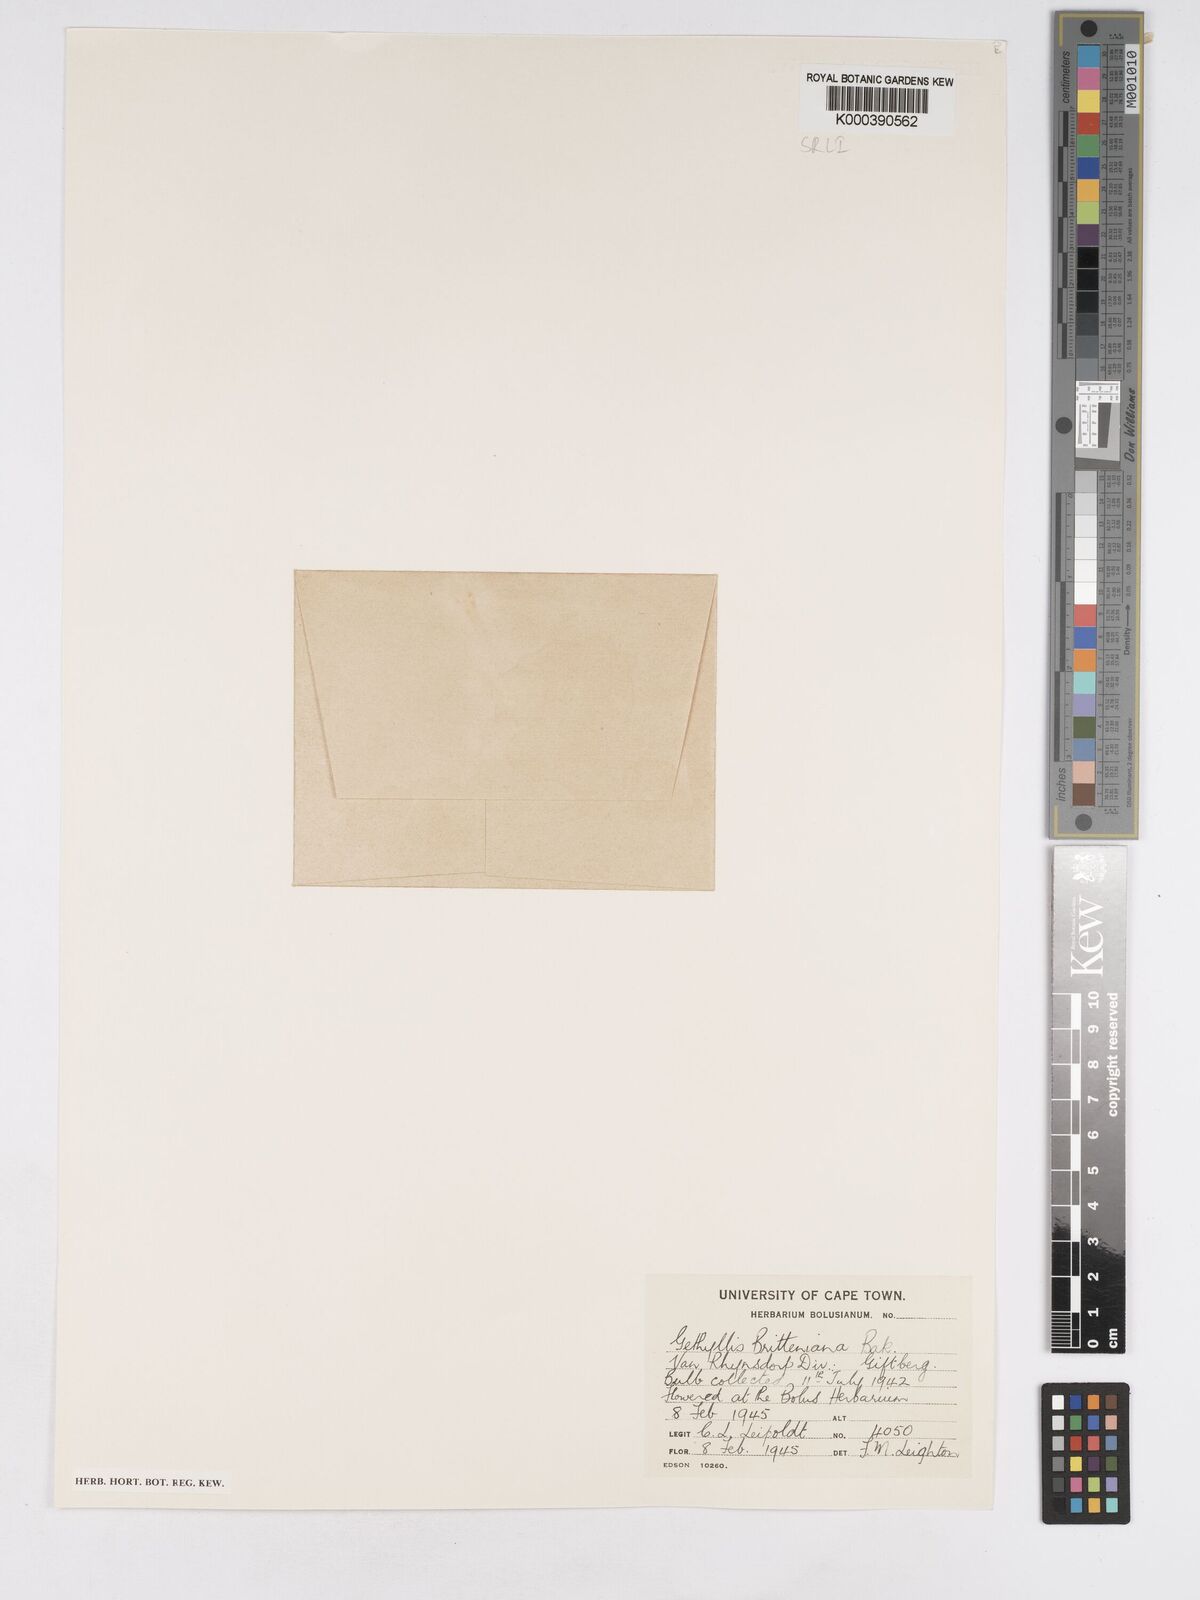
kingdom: Plantae
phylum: Tracheophyta
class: Liliopsida
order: Asparagales
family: Amaryllidaceae
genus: Gethyllis
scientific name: Gethyllis britteniana
